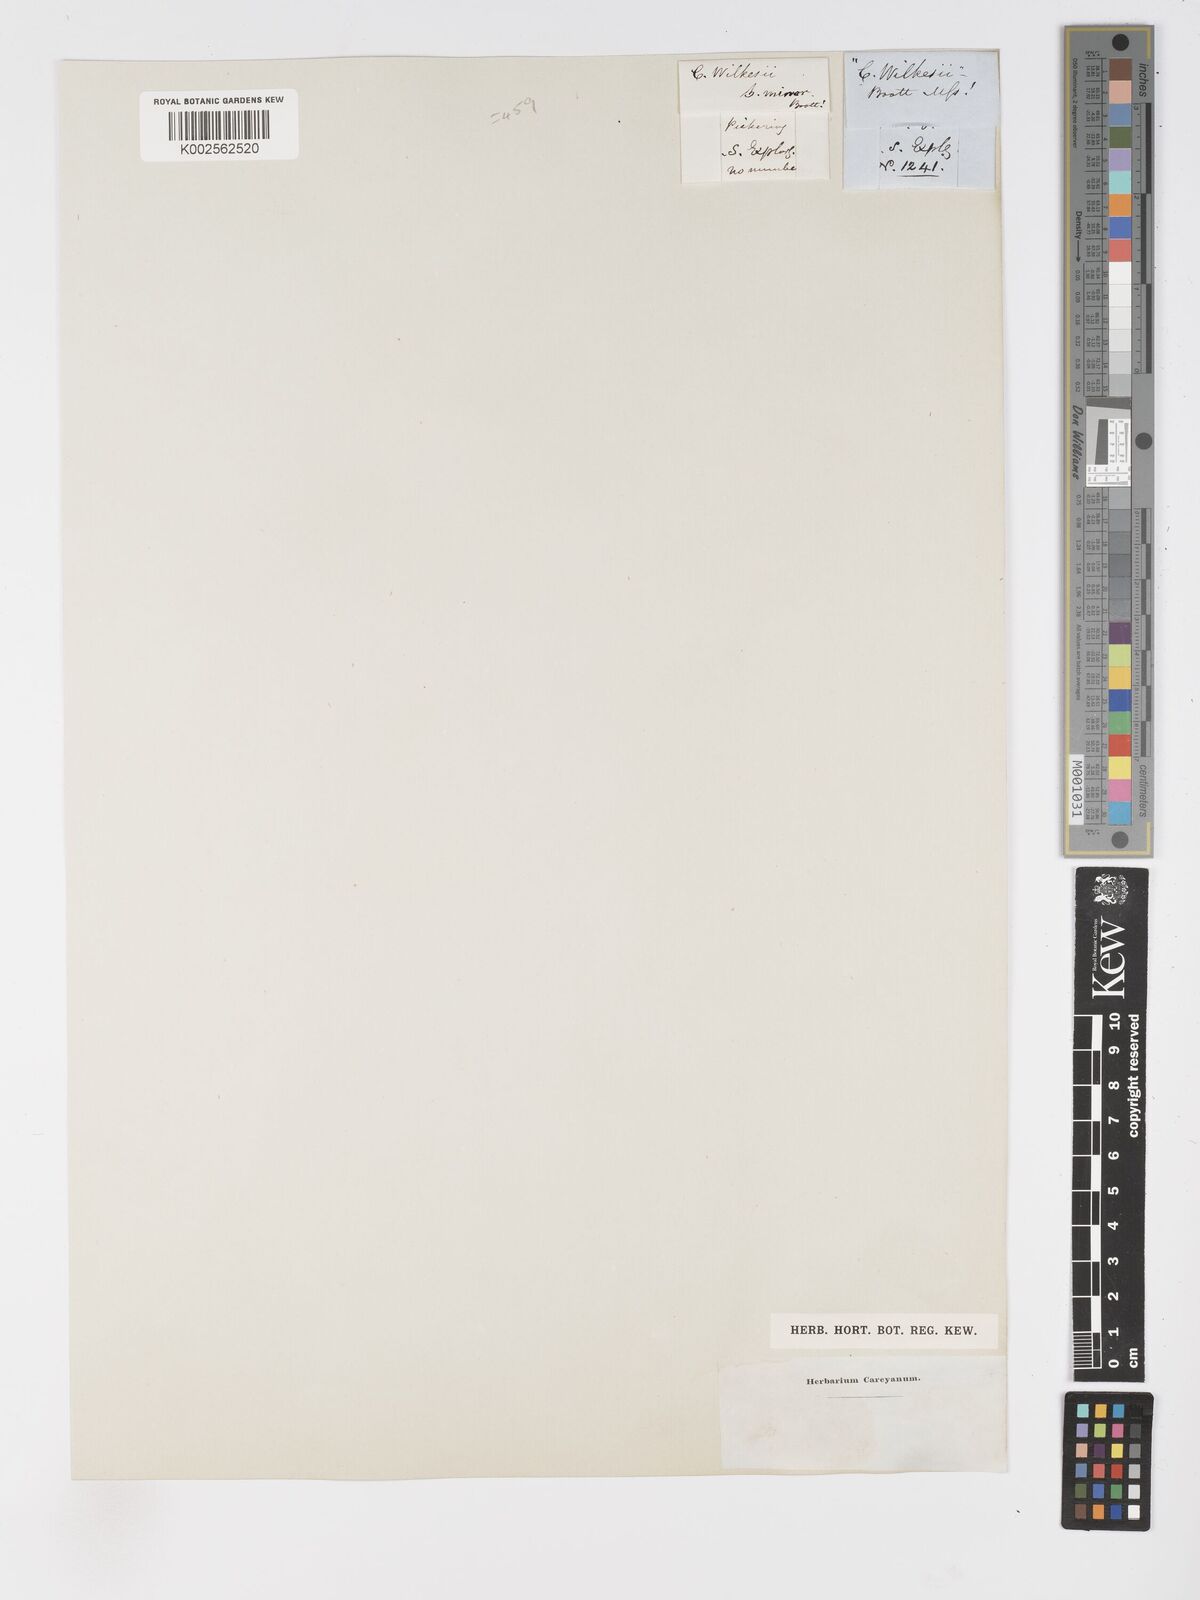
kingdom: Plantae
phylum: Tracheophyta
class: Liliopsida
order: Poales
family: Cyperaceae
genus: Carex
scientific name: Carex aquatilis
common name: Water sedge
